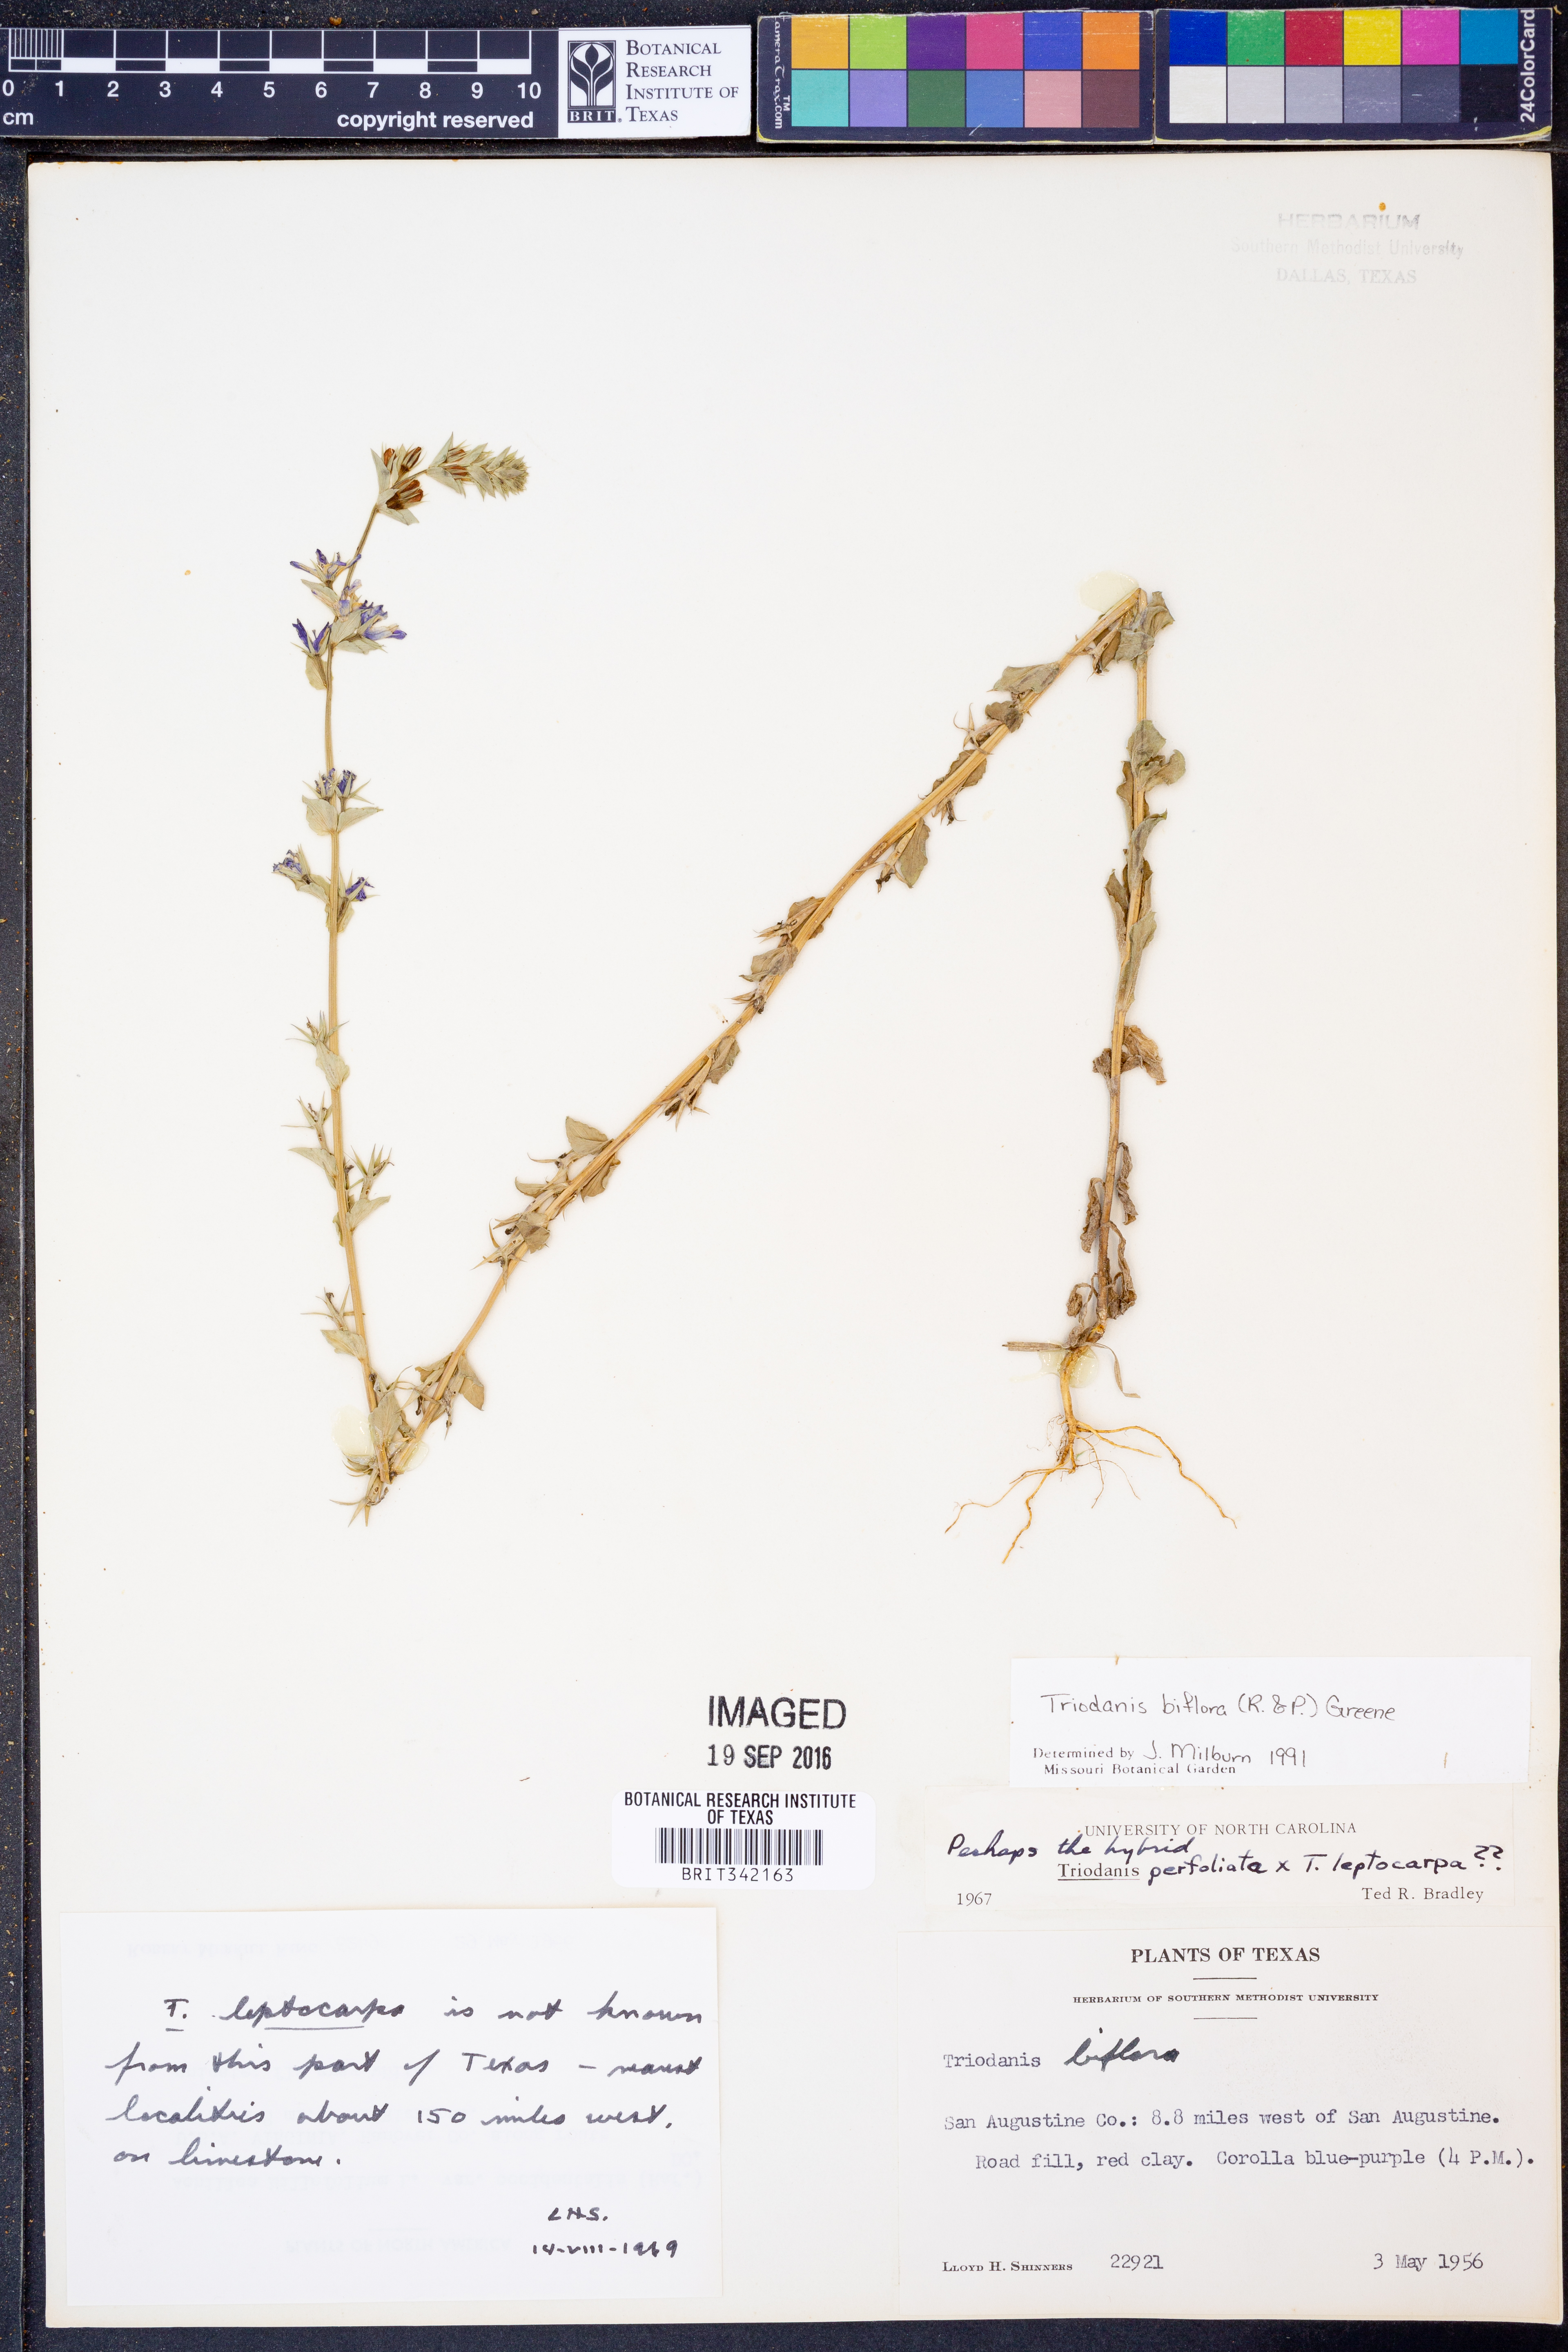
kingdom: Plantae
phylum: Tracheophyta
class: Magnoliopsida
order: Asterales
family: Campanulaceae
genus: Triodanis
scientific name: Triodanis perfoliata
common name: Clasping venus' looking-glass
